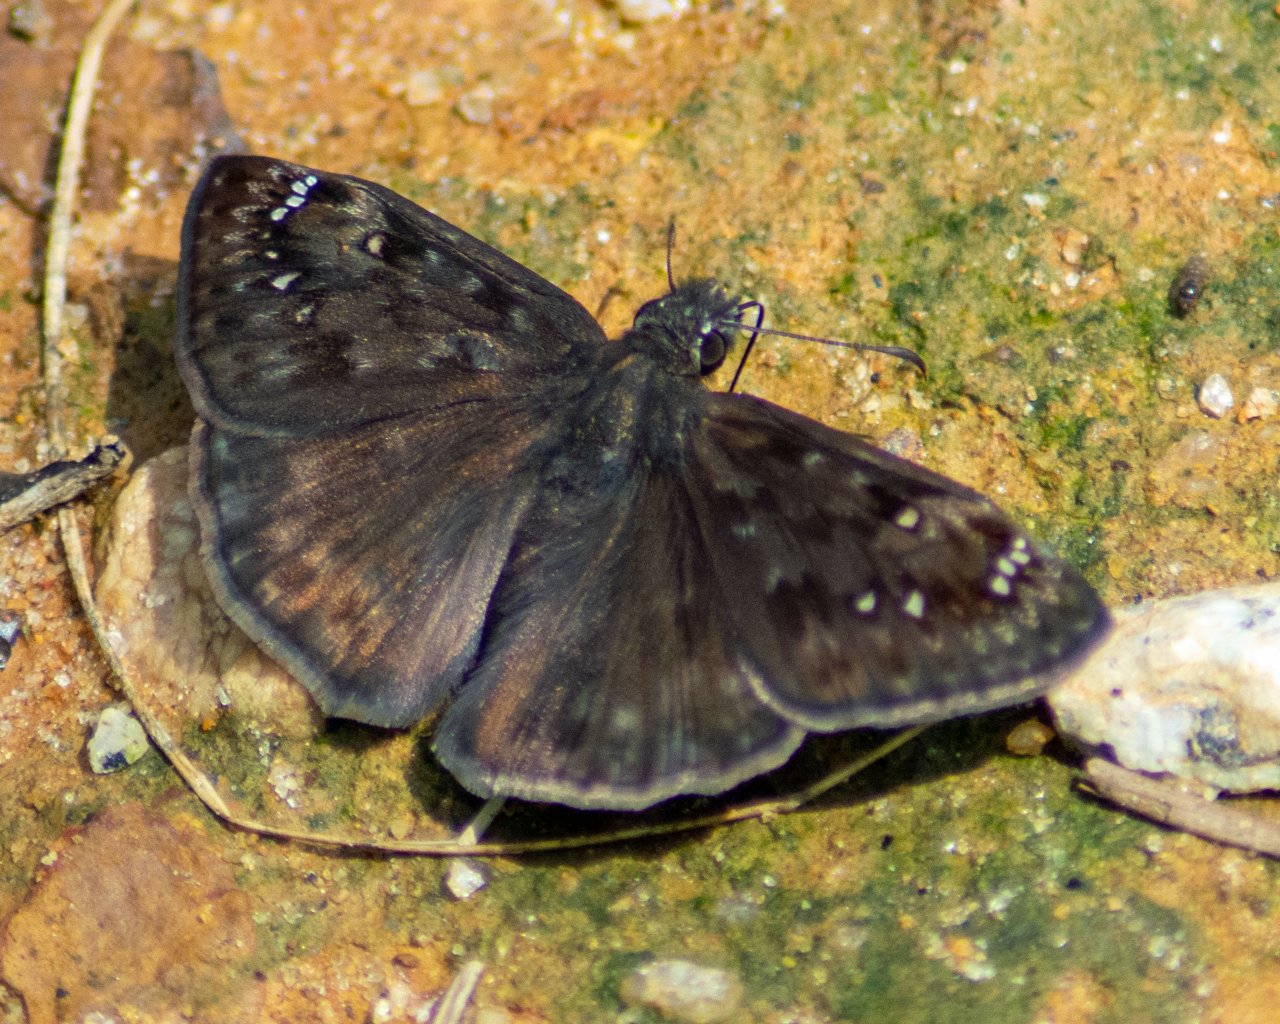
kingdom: Animalia
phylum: Arthropoda
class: Insecta
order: Lepidoptera
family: Hesperiidae
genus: Gesta
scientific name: Gesta
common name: Horace's Duskywing
